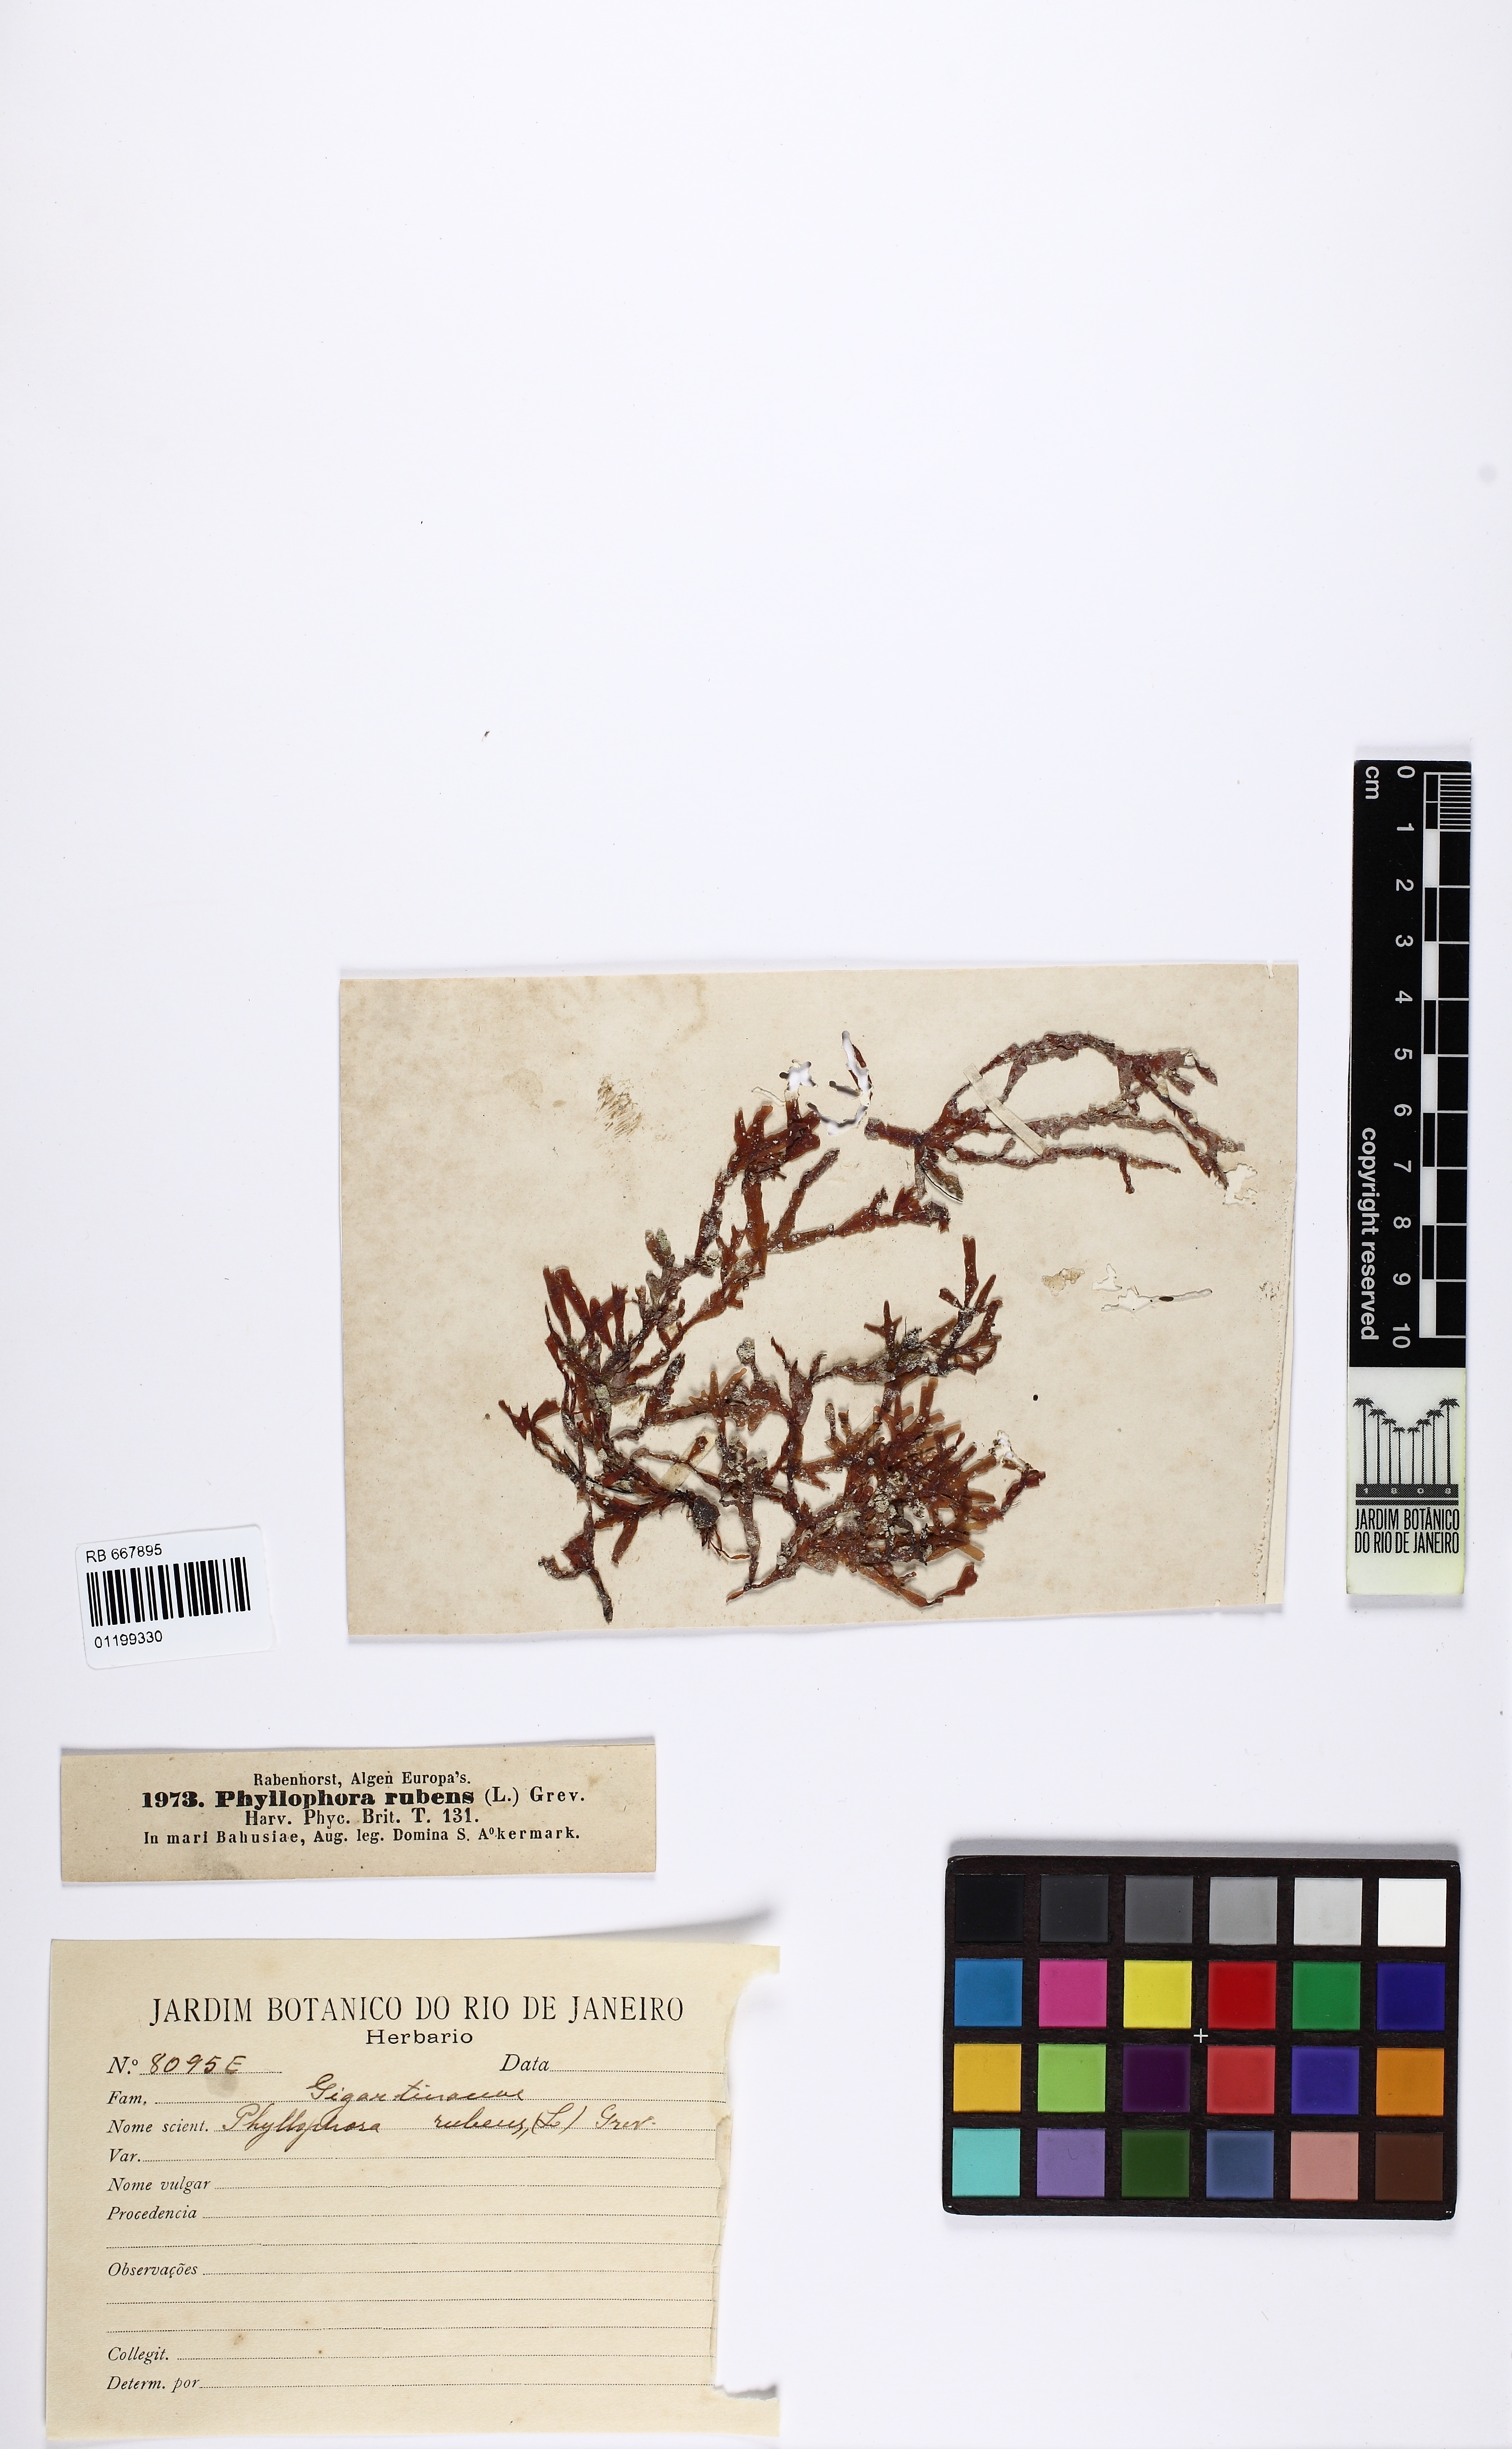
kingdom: Plantae
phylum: Rhodophyta
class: Florideophyceae
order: Gigartinales
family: Phyllophoraceae
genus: Phyllophora
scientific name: Phyllophora crispa
